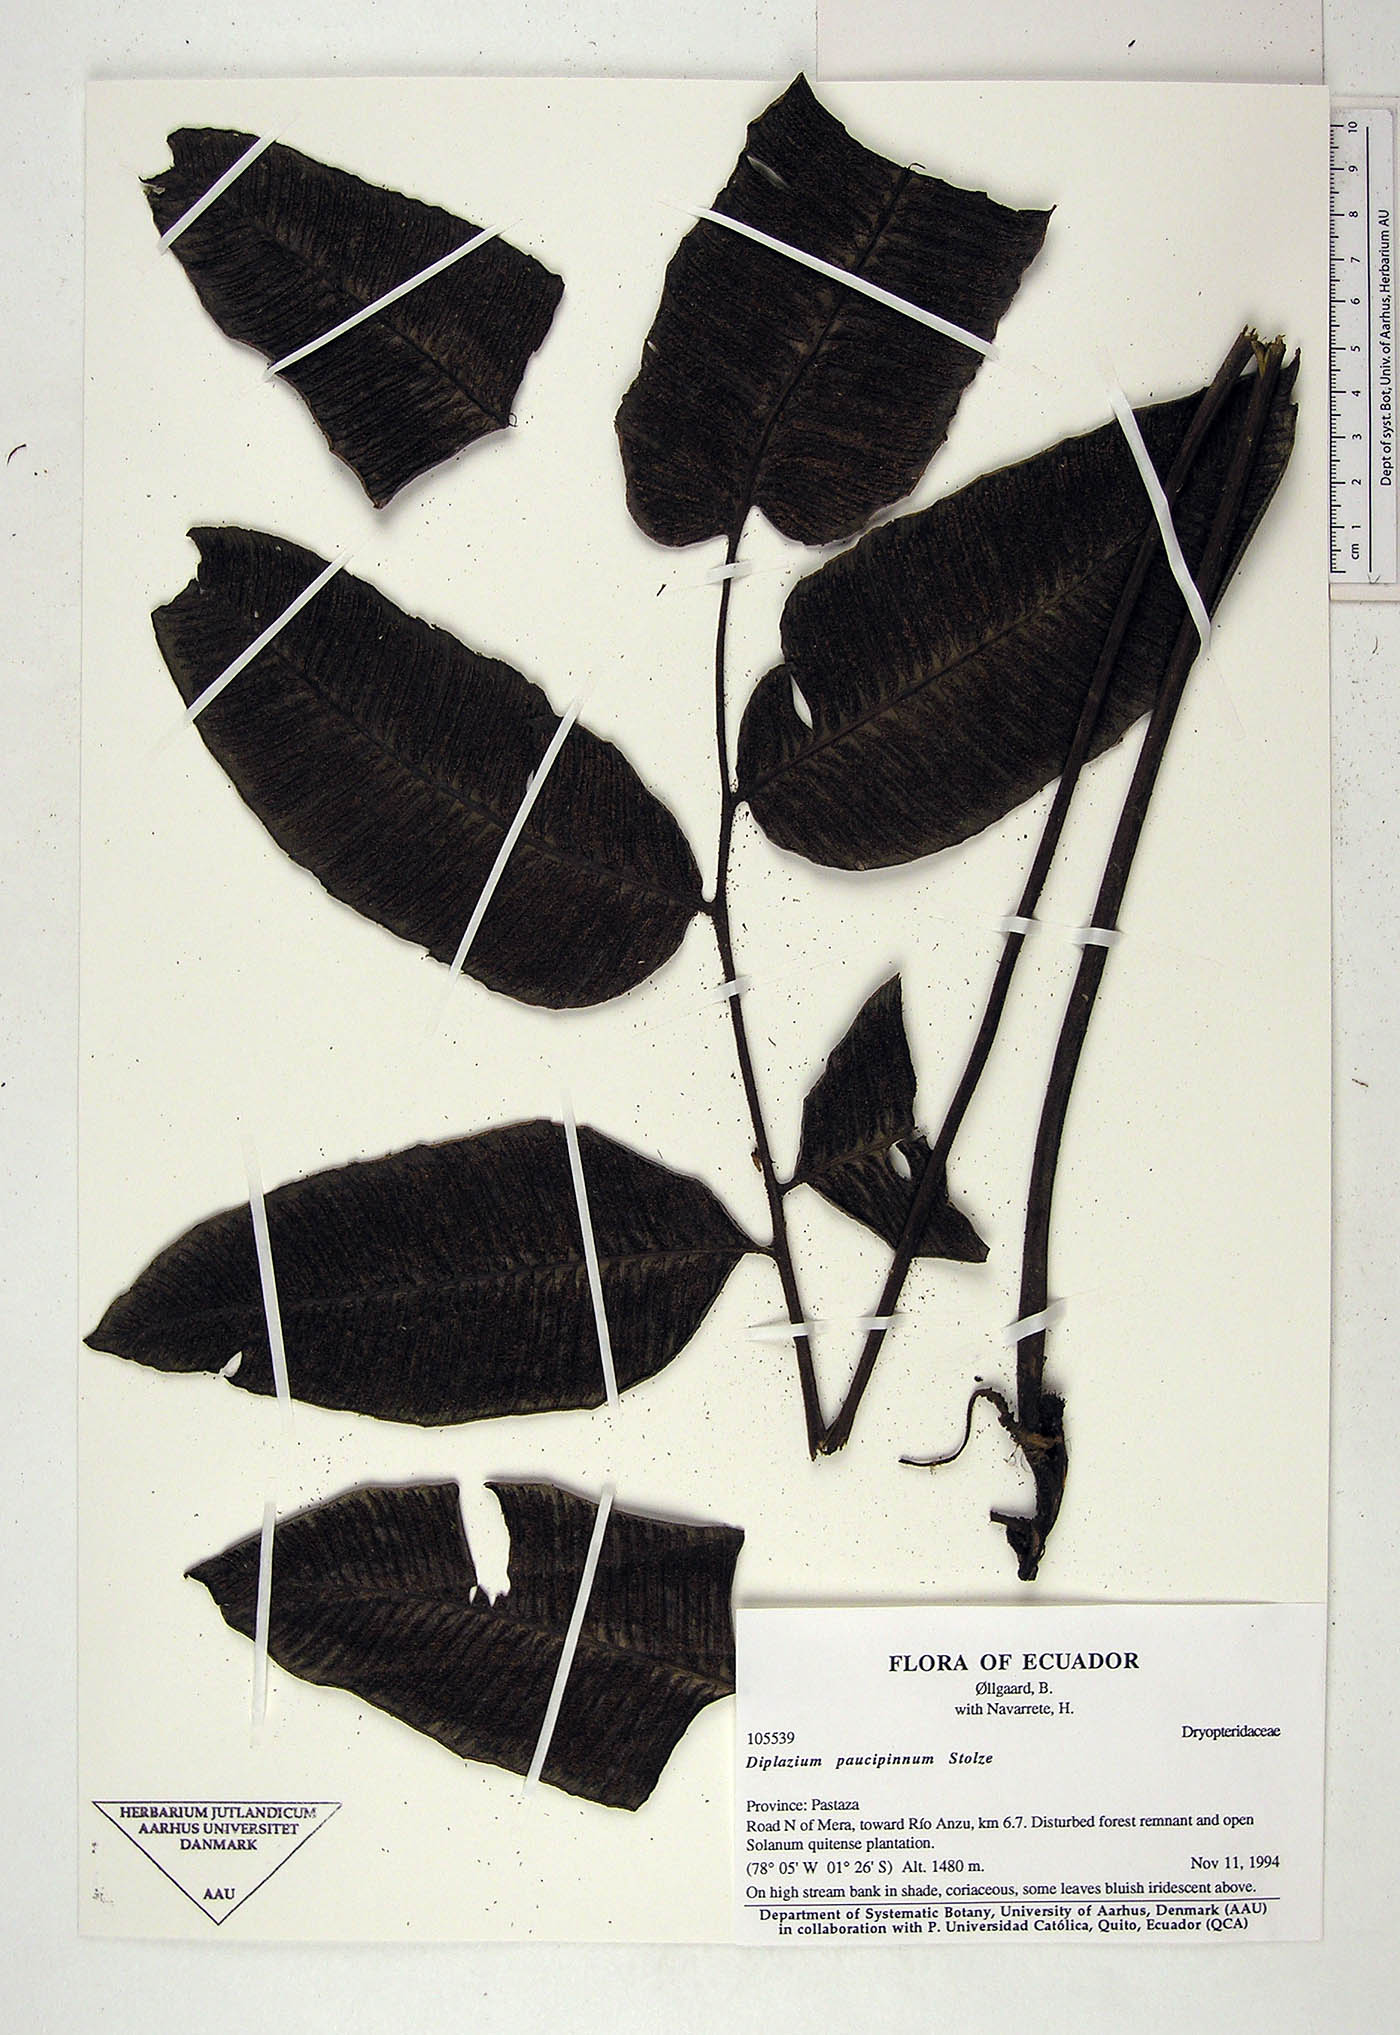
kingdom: Plantae
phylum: Tracheophyta
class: Polypodiopsida
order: Polypodiales
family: Athyriaceae
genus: Diplazium
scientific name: Diplazium paucipinnum
